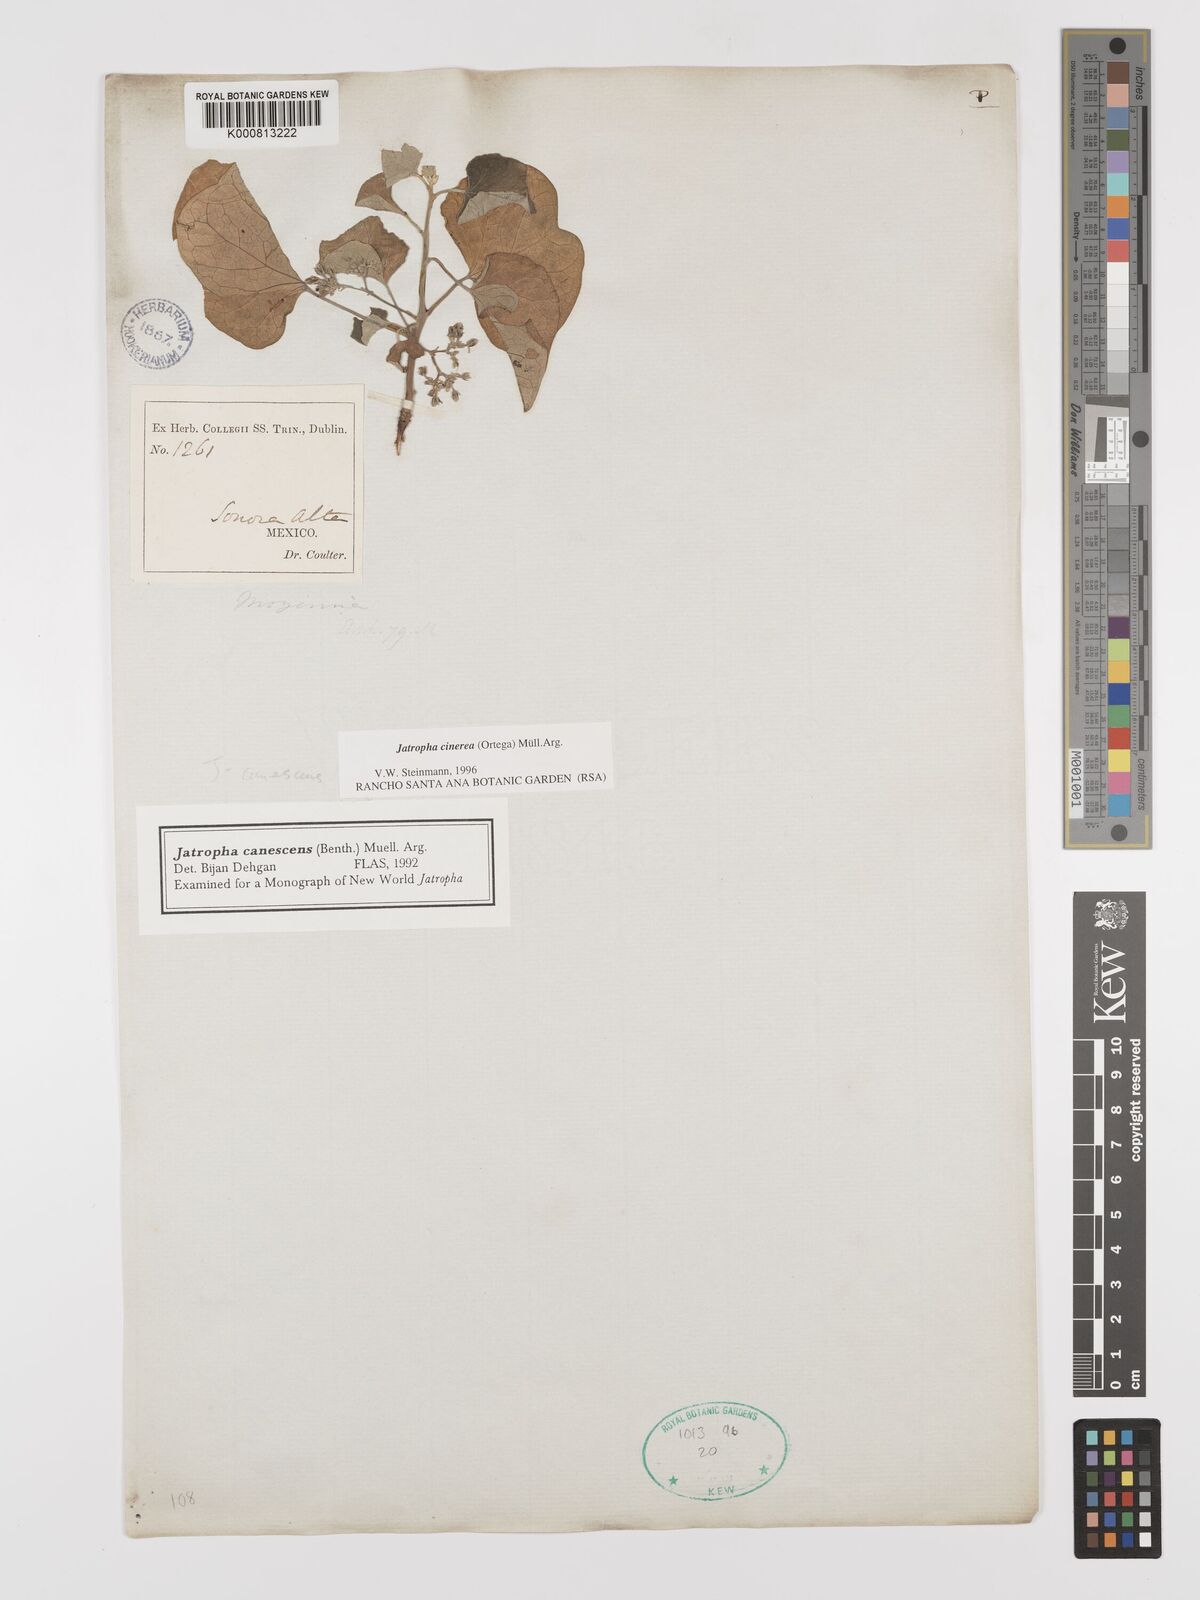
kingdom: Plantae
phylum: Tracheophyta
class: Magnoliopsida
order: Malpighiales
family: Euphorbiaceae
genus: Jatropha
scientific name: Jatropha
